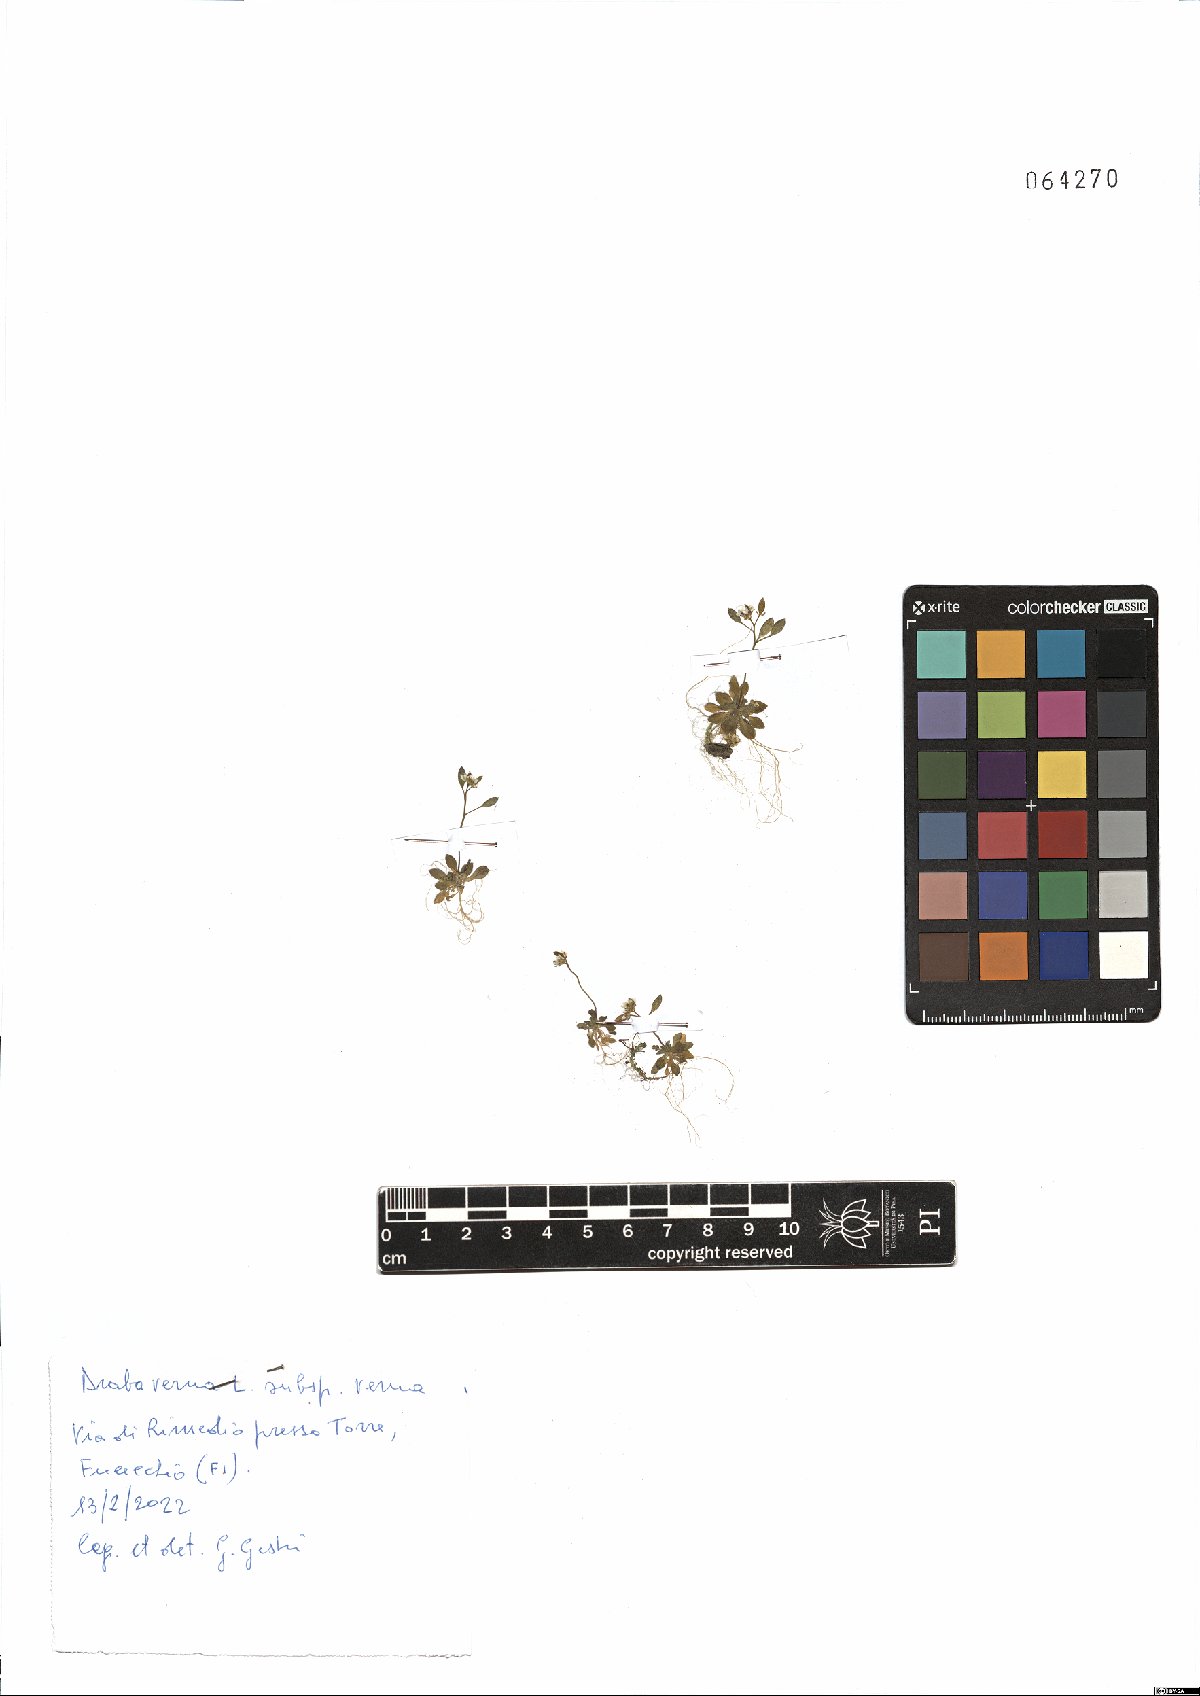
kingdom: Plantae
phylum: Tracheophyta
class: Magnoliopsida
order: Brassicales
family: Brassicaceae
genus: Draba
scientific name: Draba verna
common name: Spring draba
